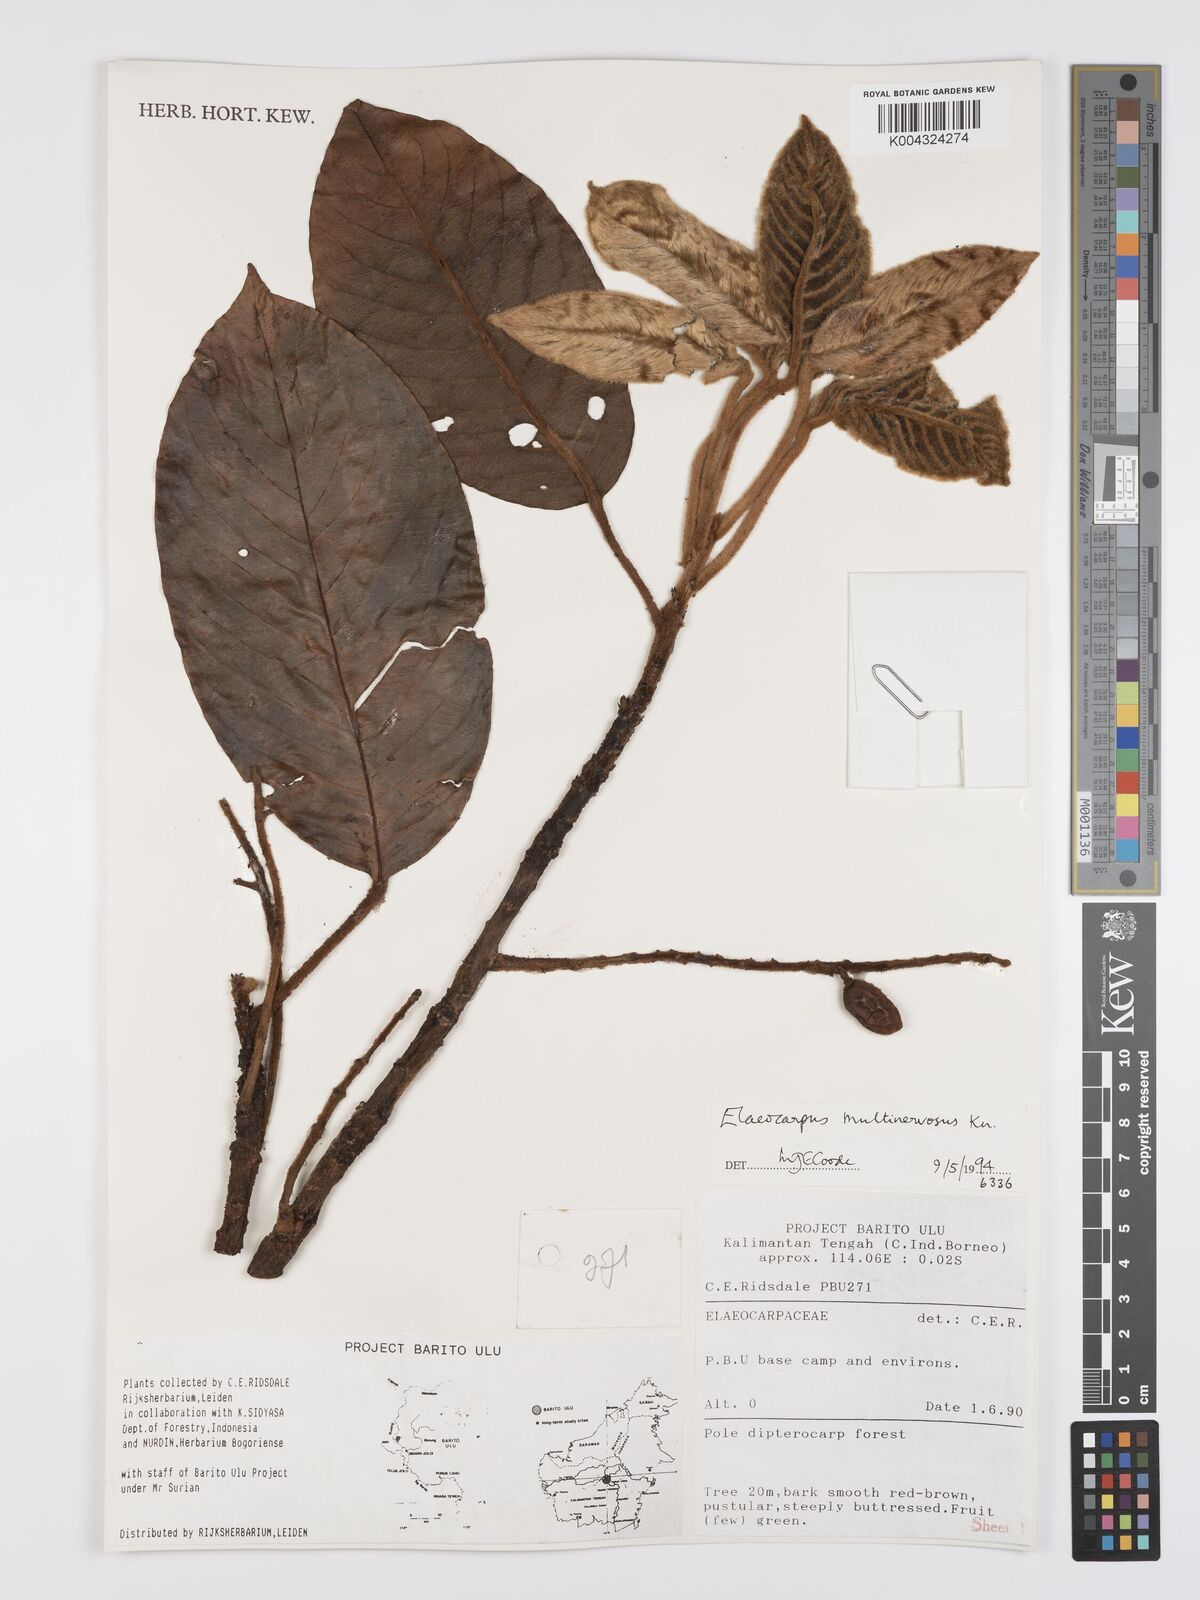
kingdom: Plantae
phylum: Tracheophyta
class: Magnoliopsida
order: Oxalidales
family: Elaeocarpaceae
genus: Elaeocarpus
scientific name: Elaeocarpus multinervosus
